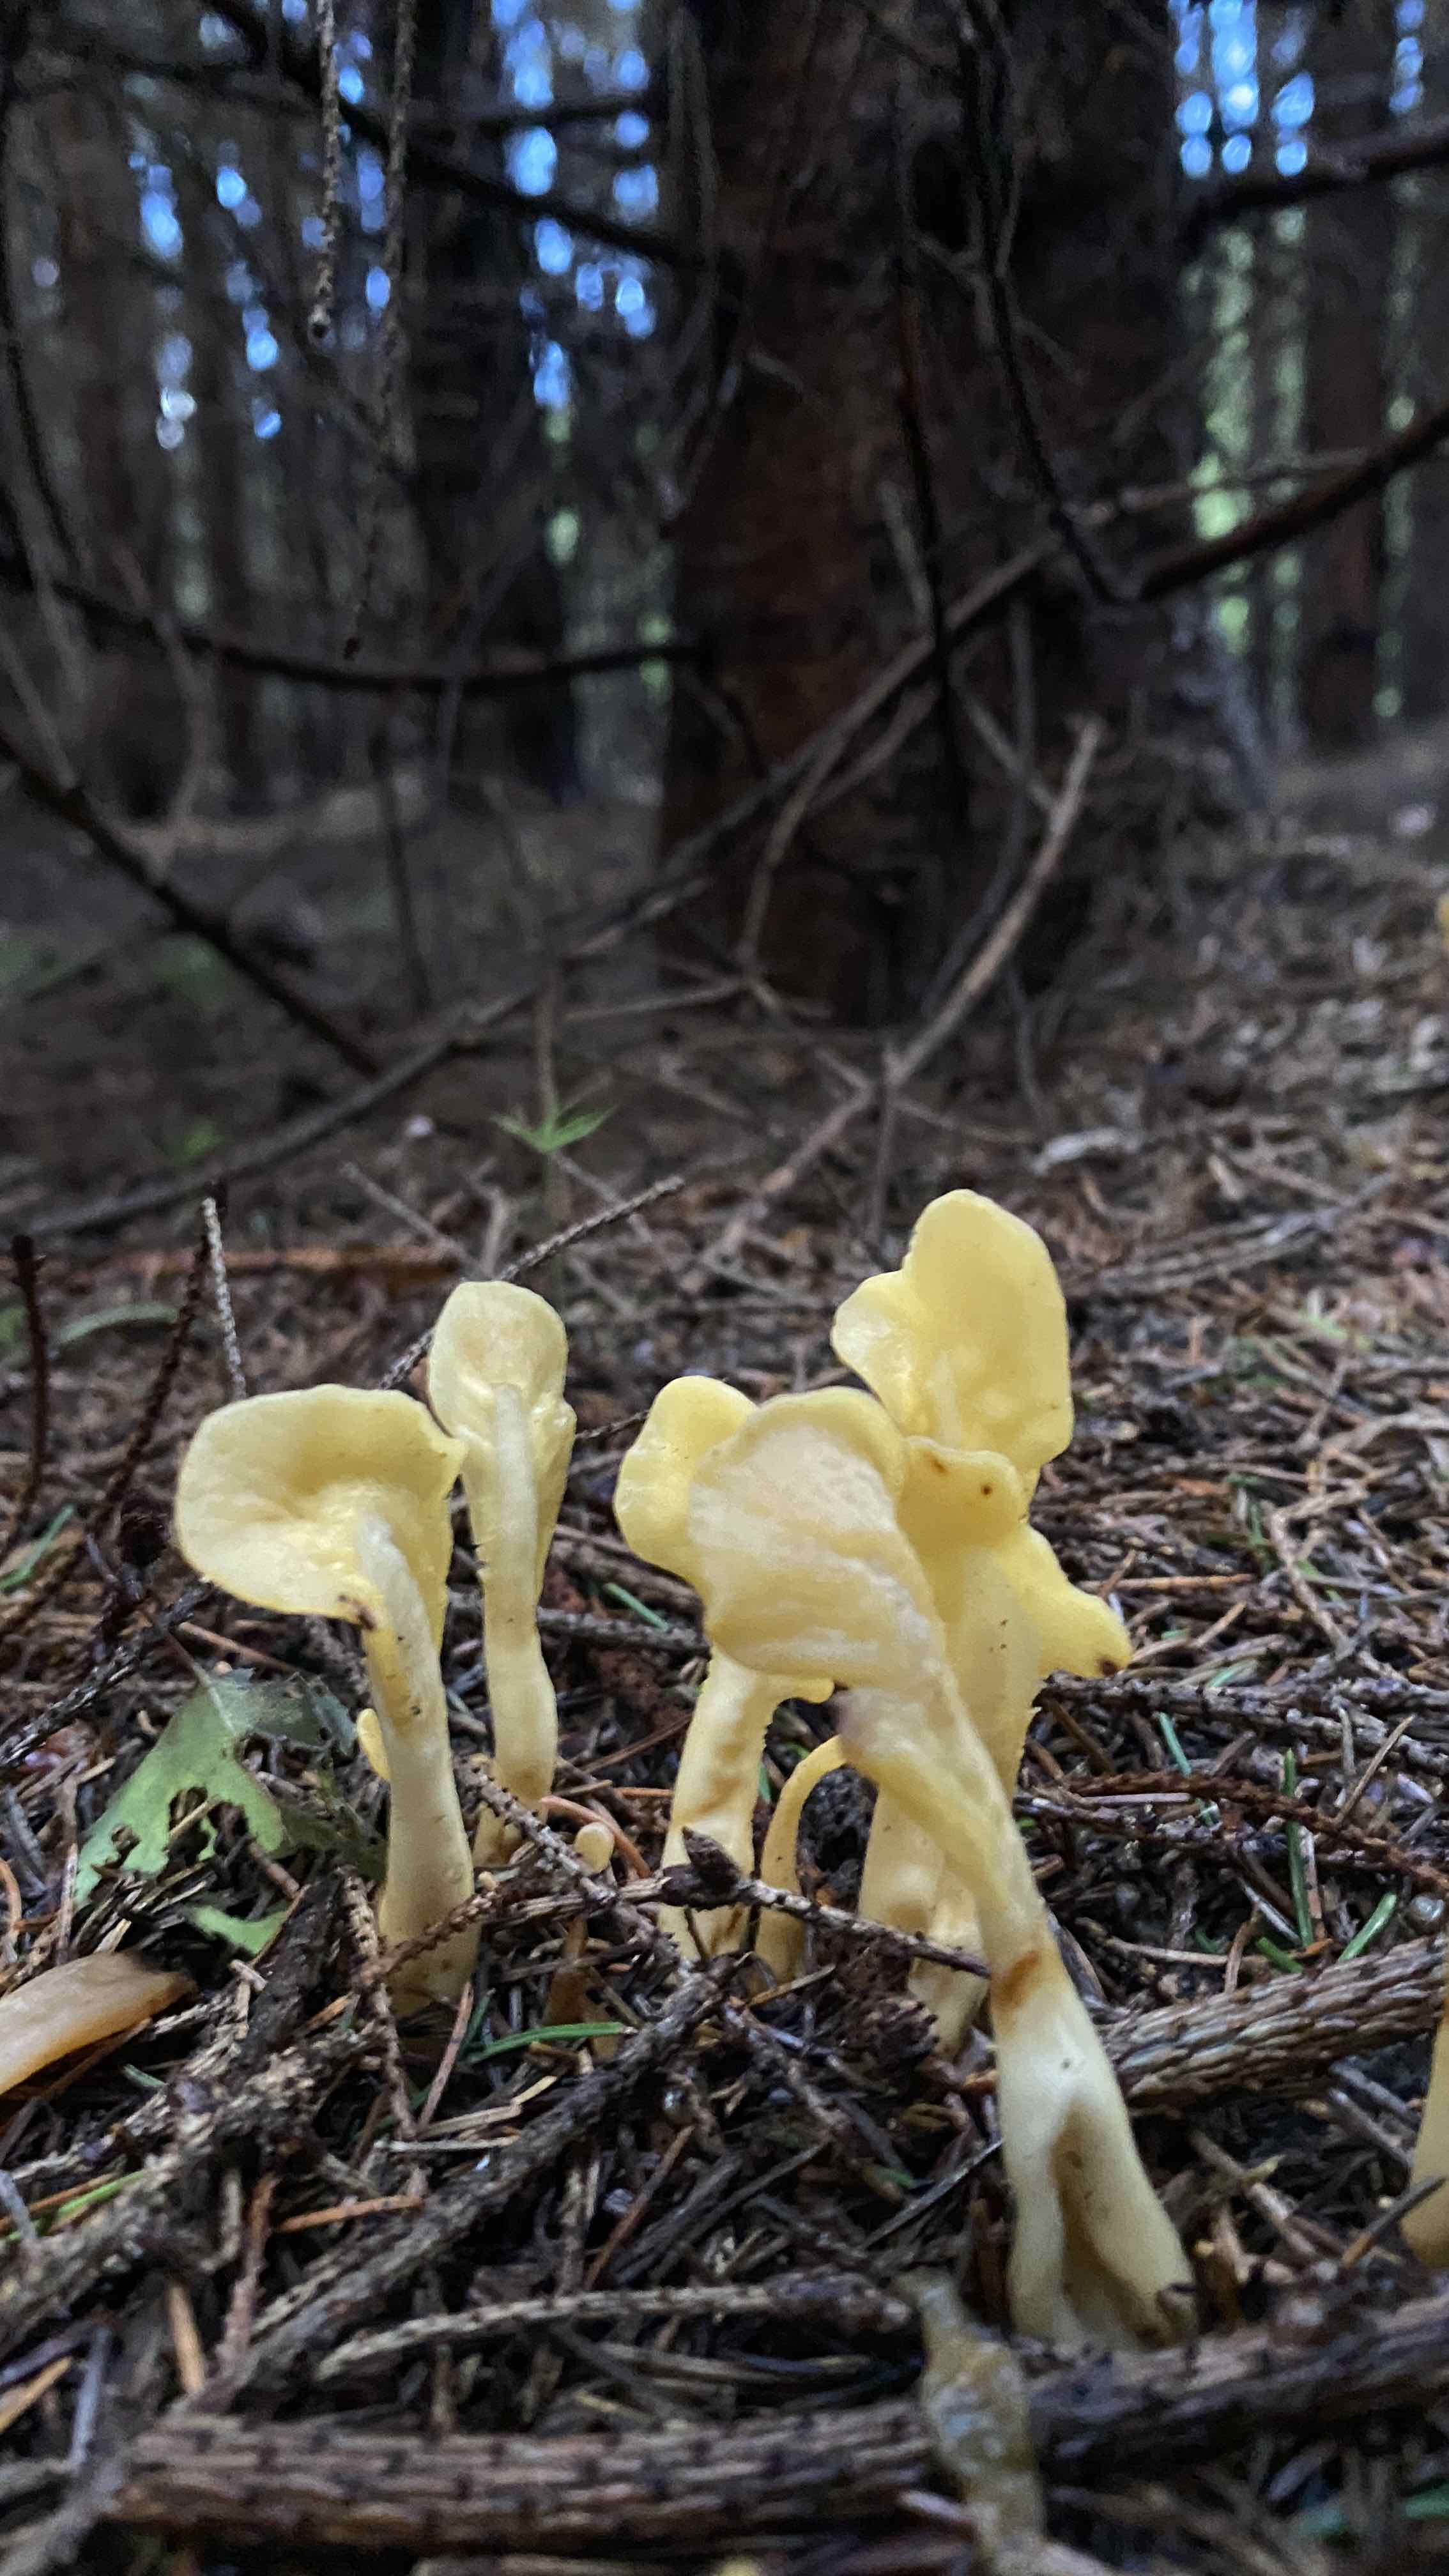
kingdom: Fungi
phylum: Ascomycota
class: Leotiomycetes
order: Rhytismatales
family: Cudoniaceae
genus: Spathularia
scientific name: Spathularia flavida
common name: gul spatelsvamp
